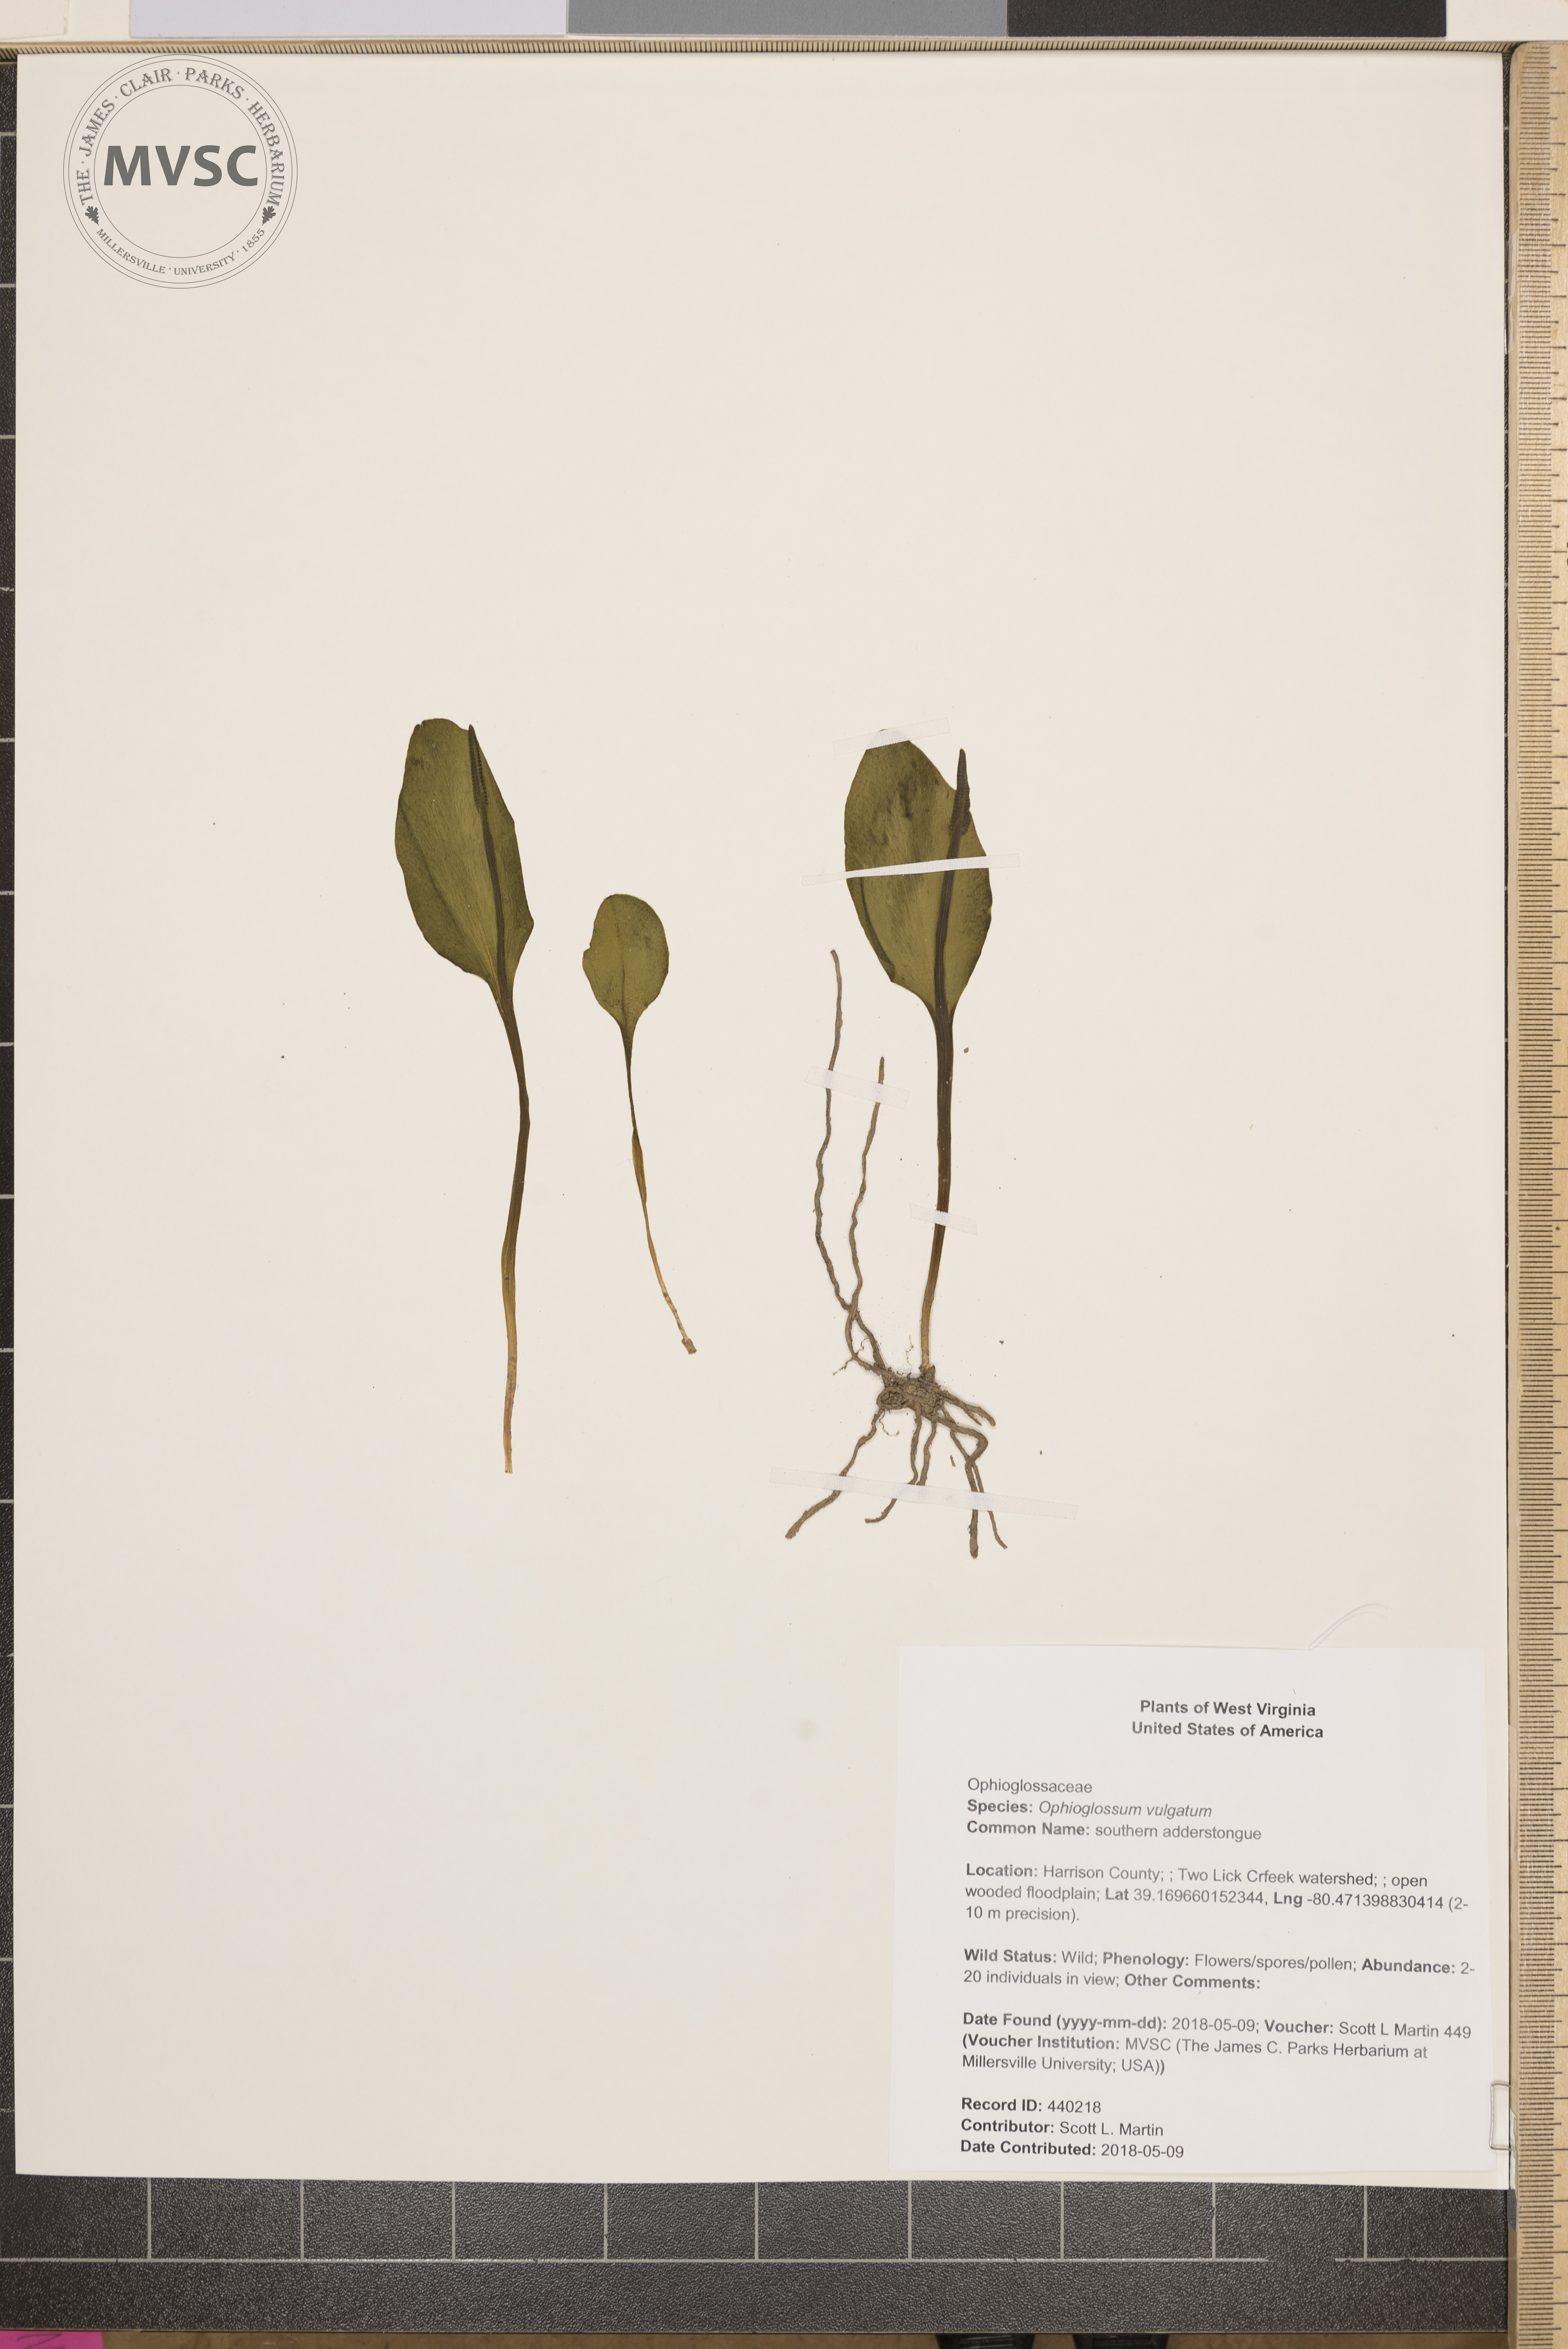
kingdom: Plantae
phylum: Tracheophyta
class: Polypodiopsida
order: Ophioglossales
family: Ophioglossaceae
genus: Ophioglossum
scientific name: Ophioglossum vulgatum
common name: southern adderstongue
